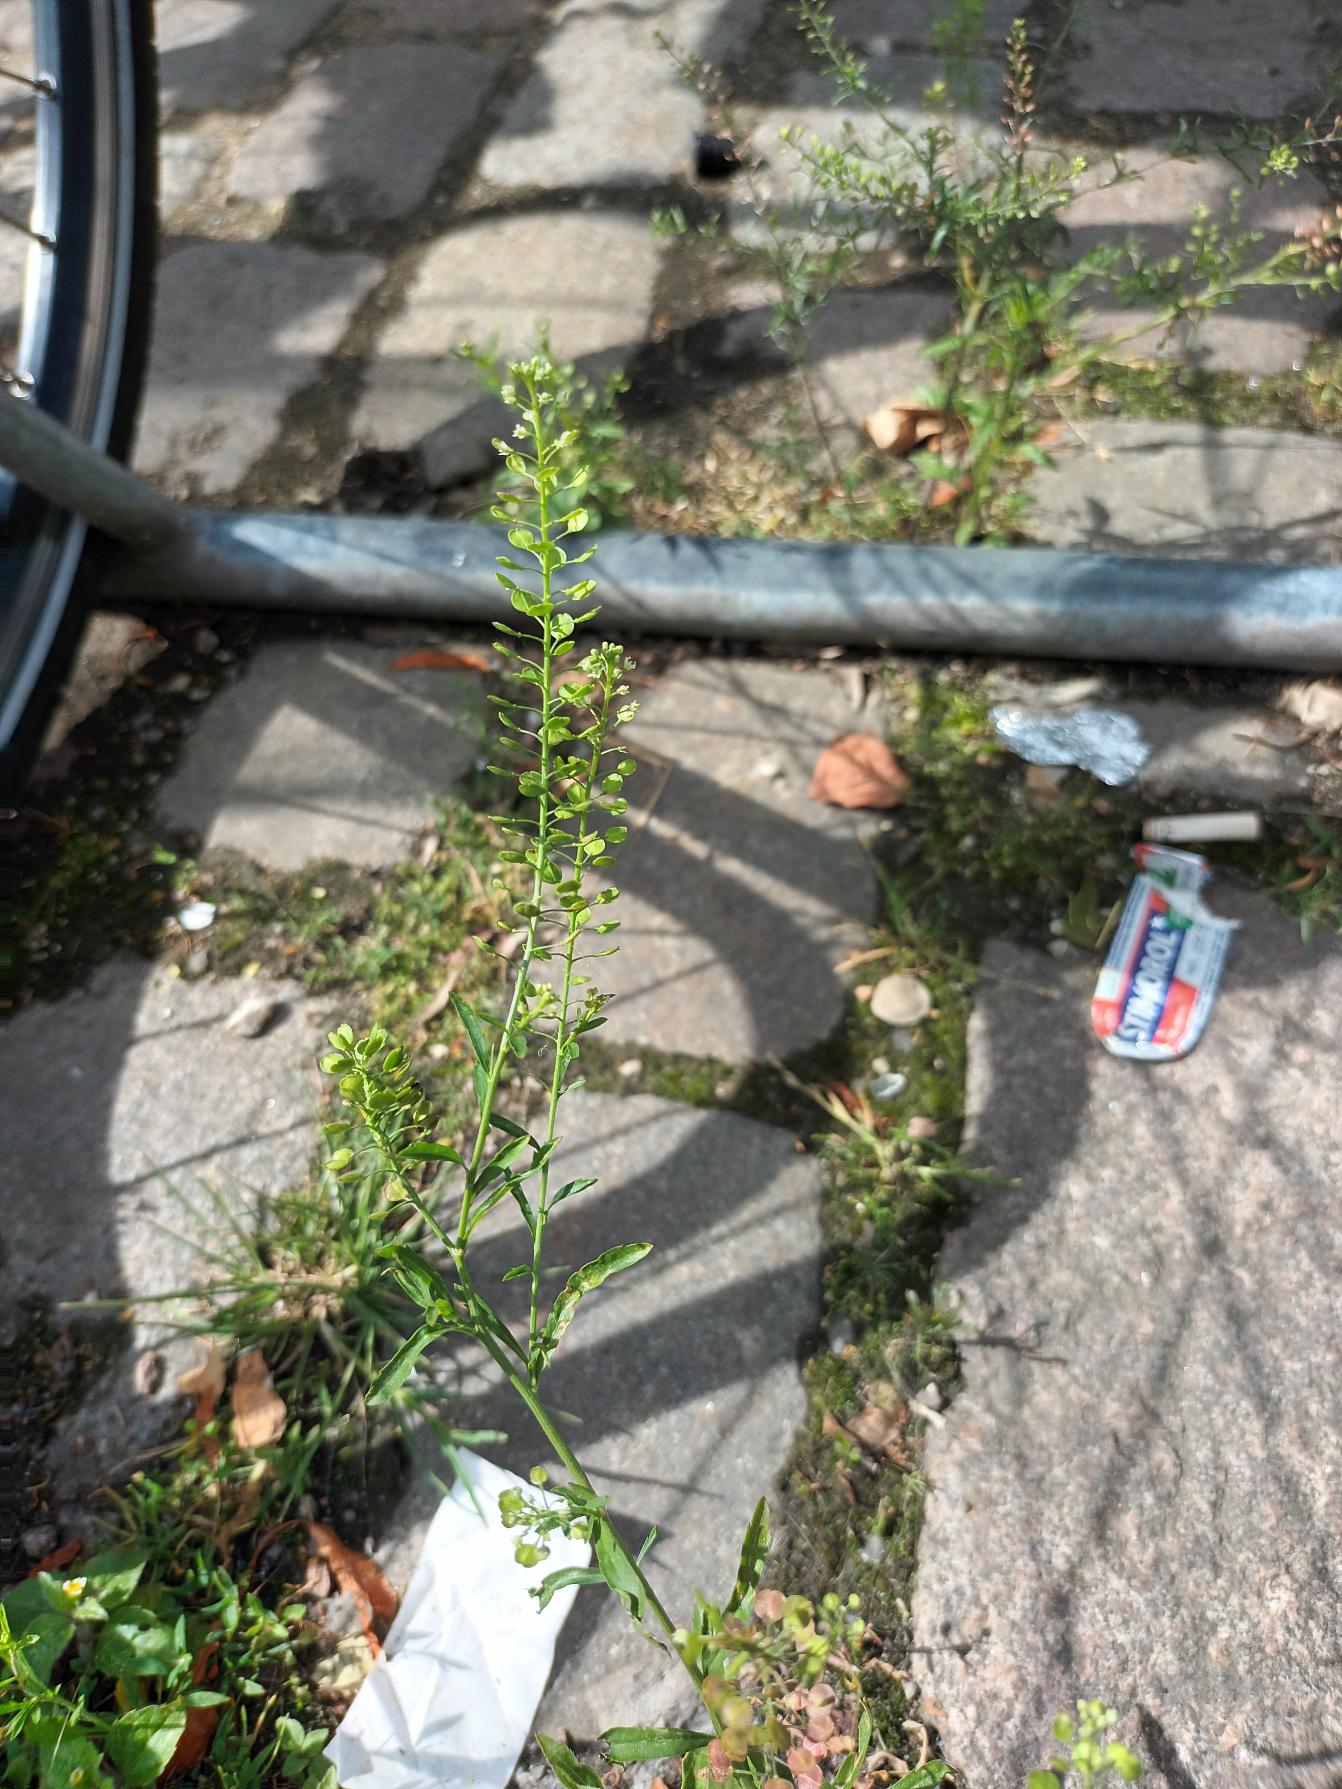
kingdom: Plantae
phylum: Tracheophyta
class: Magnoliopsida
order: Brassicales
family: Brassicaceae
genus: Lepidium
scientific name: Lepidium densiflorum
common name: Vingefrøet karse
